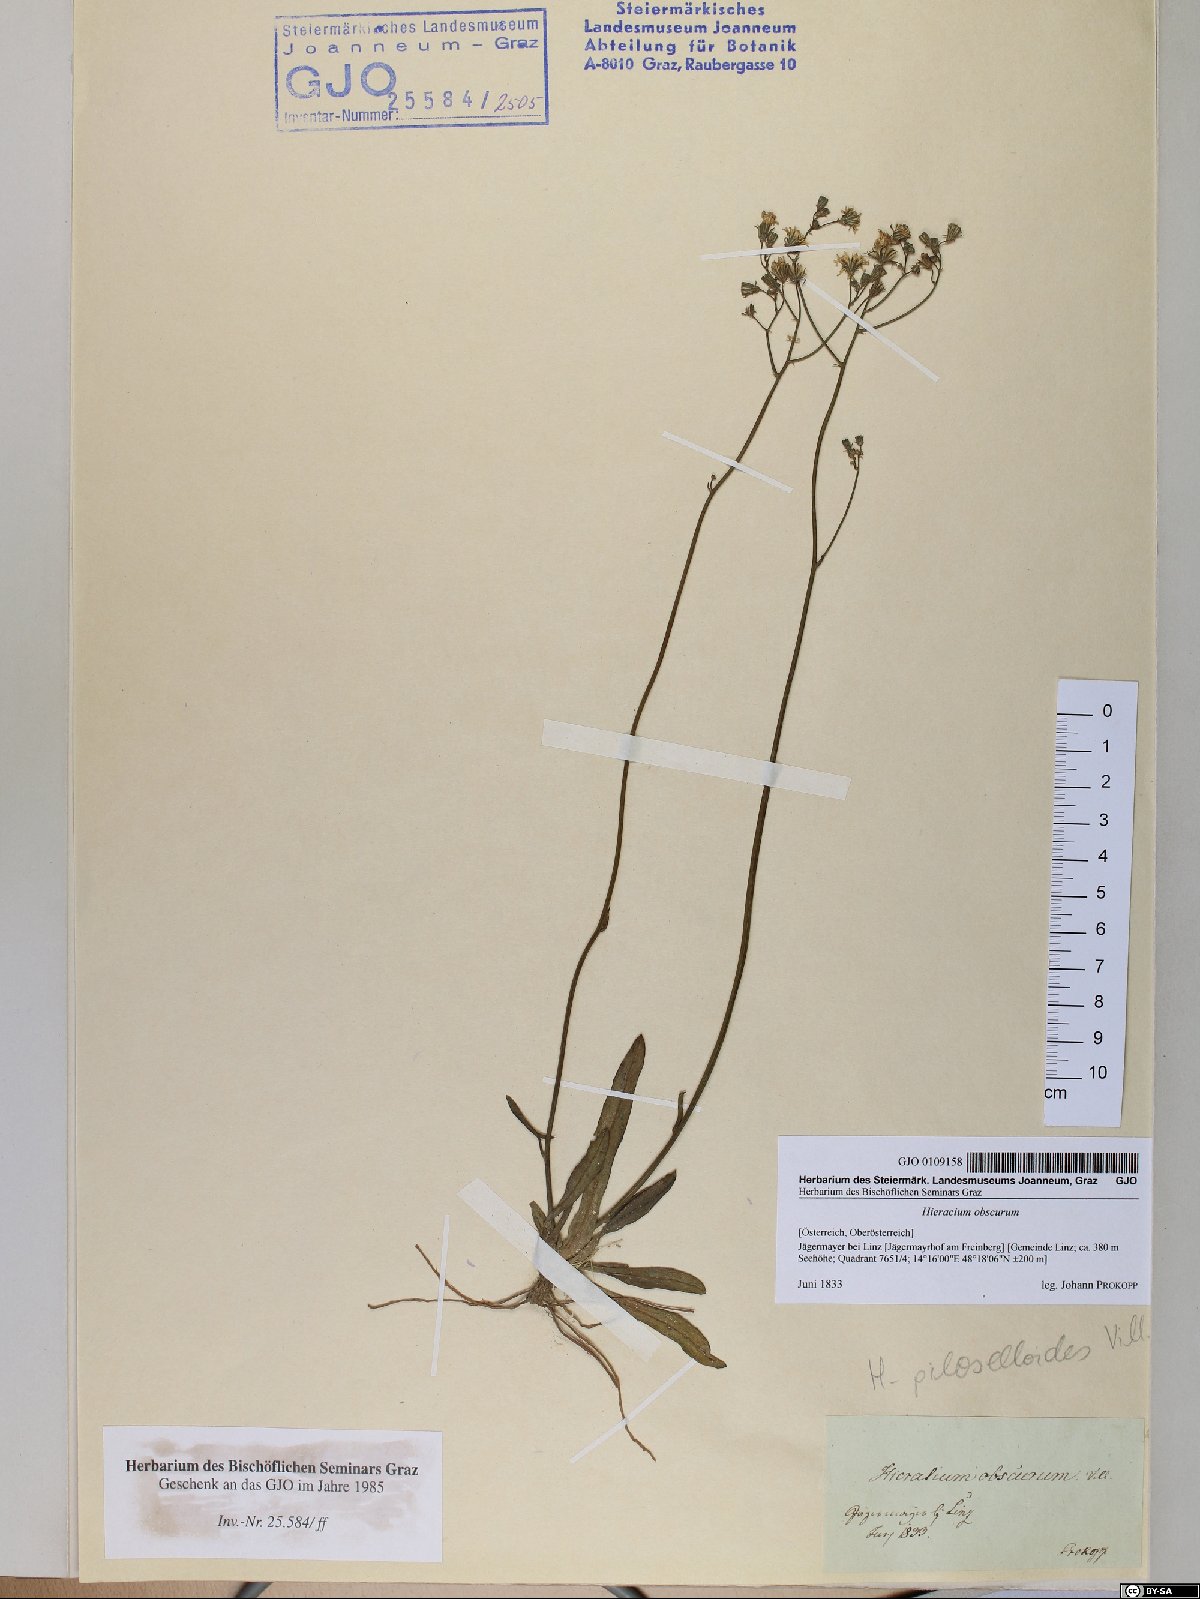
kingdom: Plantae
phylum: Tracheophyta
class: Magnoliopsida
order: Asterales
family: Asteraceae
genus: Pilosella
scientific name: Pilosella piloselloides
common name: Glaucous king-devil
